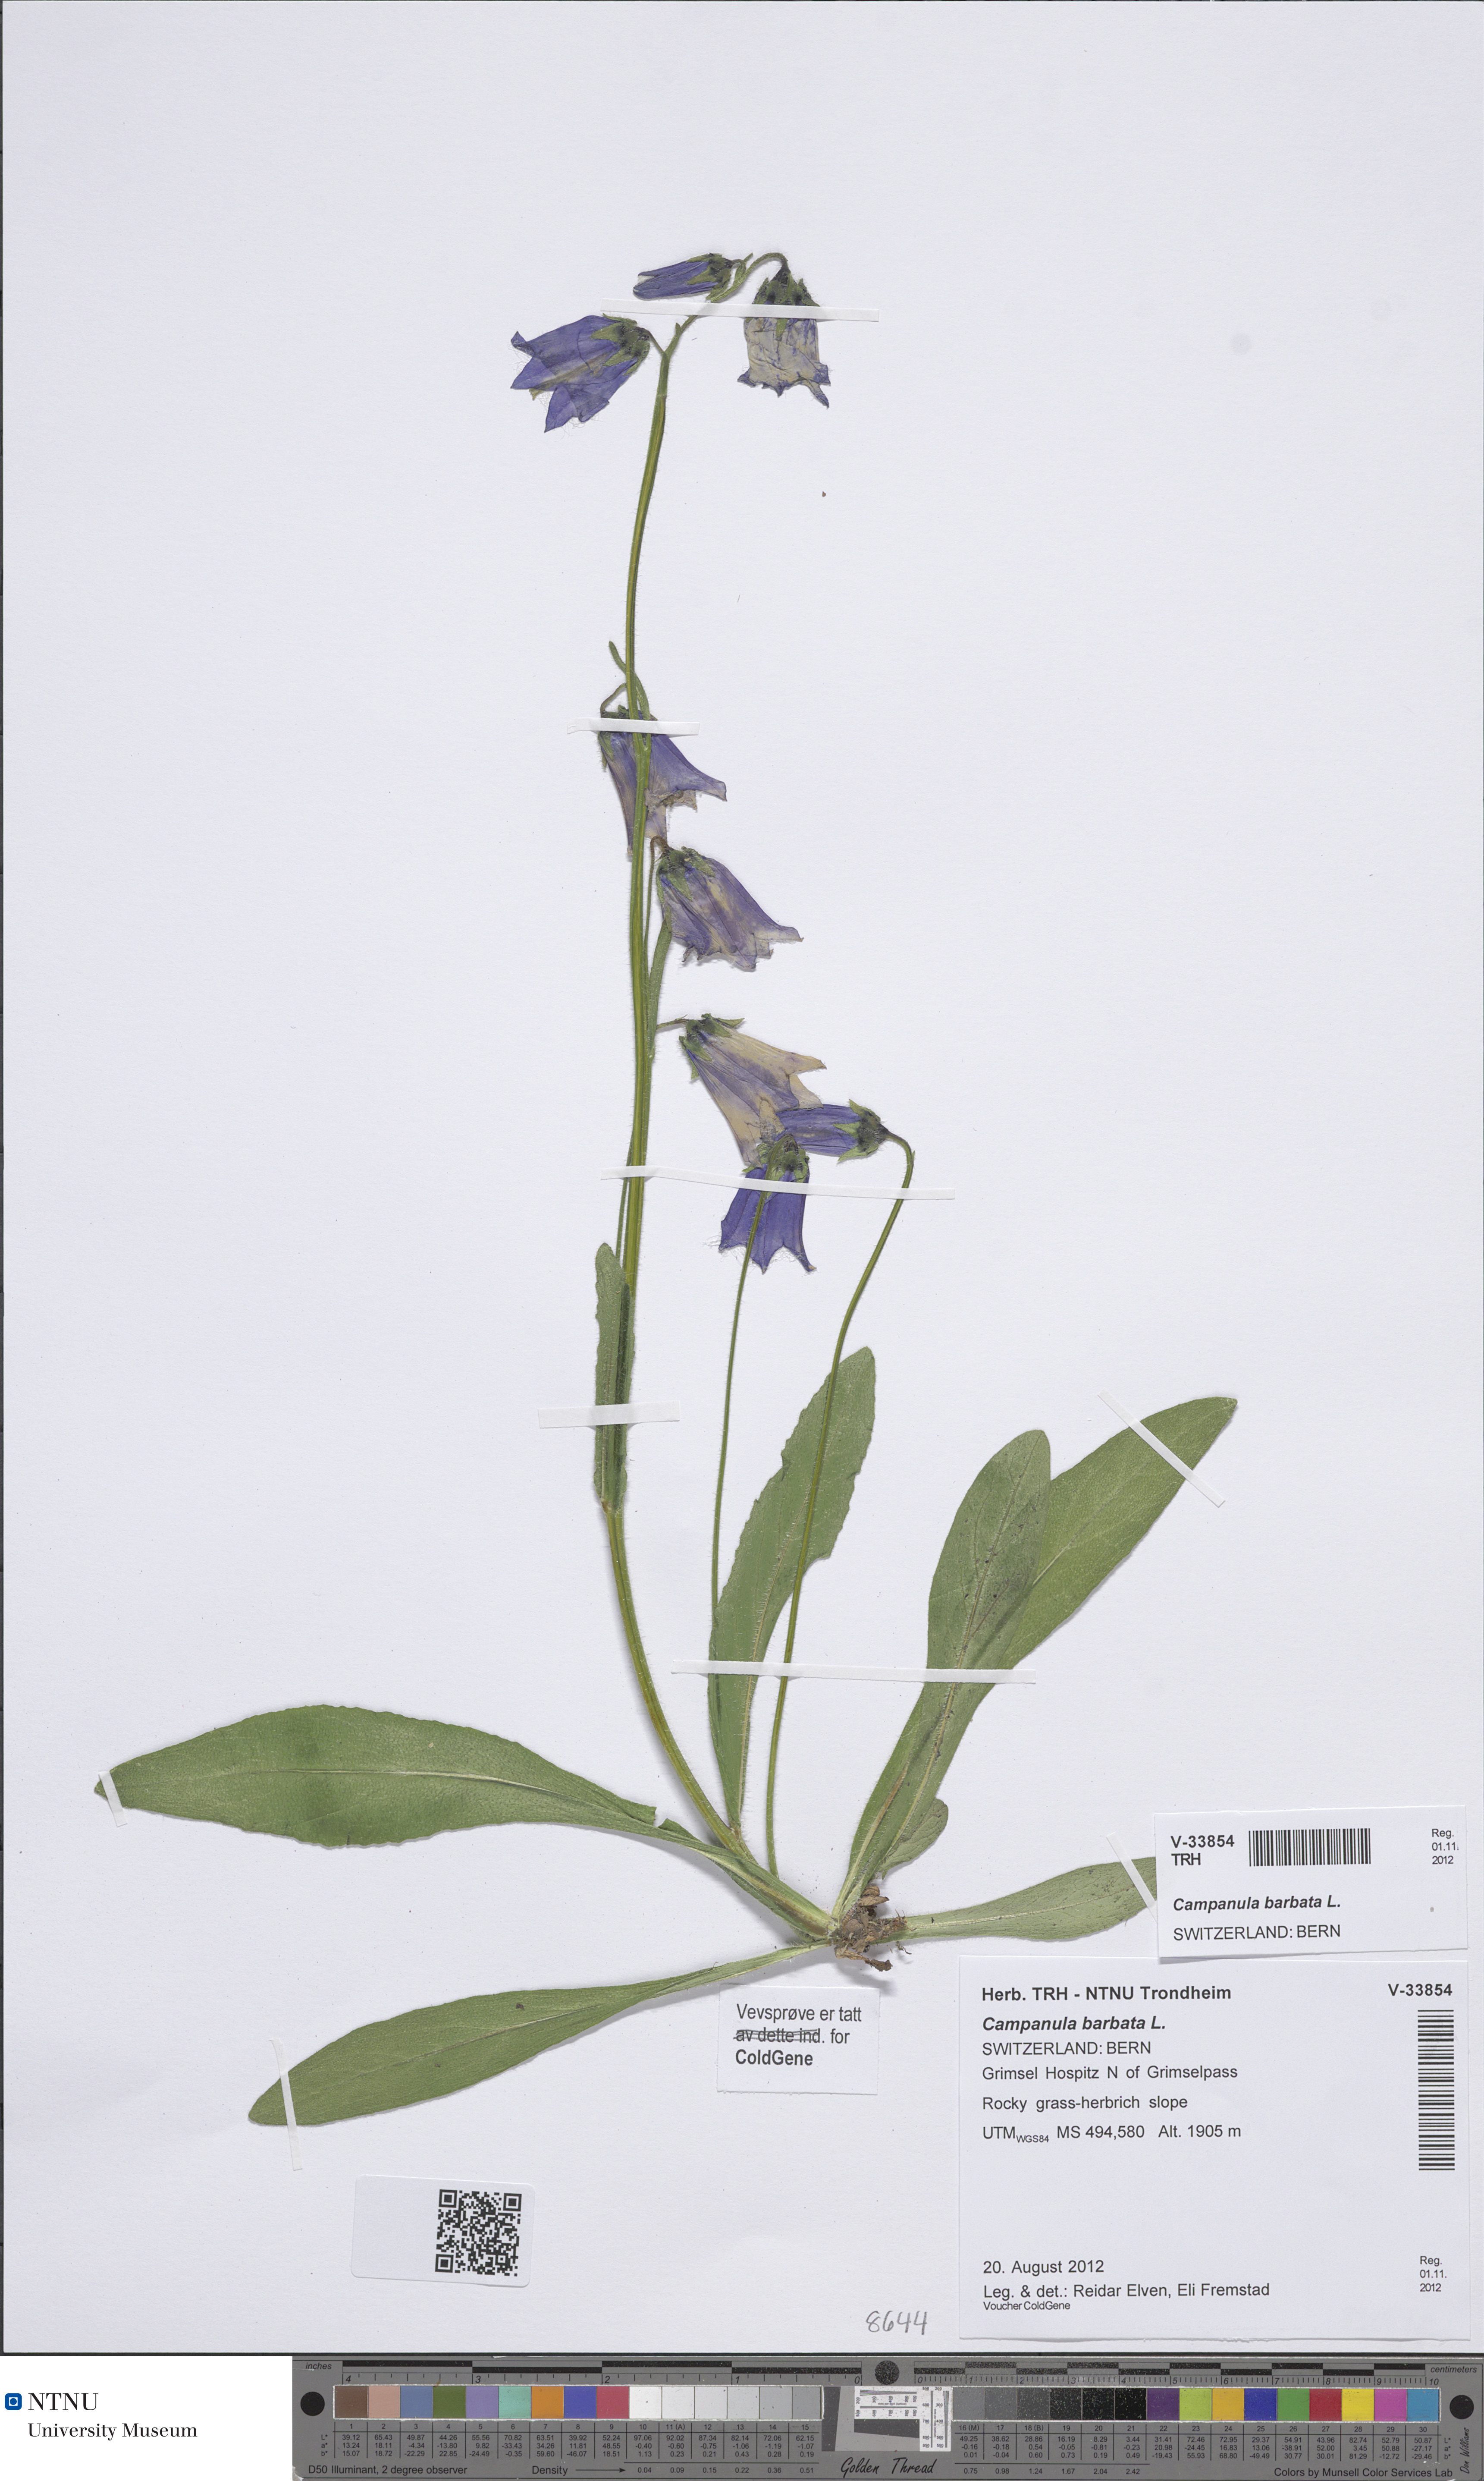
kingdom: Plantae
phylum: Tracheophyta
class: Magnoliopsida
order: Asterales
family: Campanulaceae
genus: Campanula
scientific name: Campanula barbata
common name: Bearded bellflower
